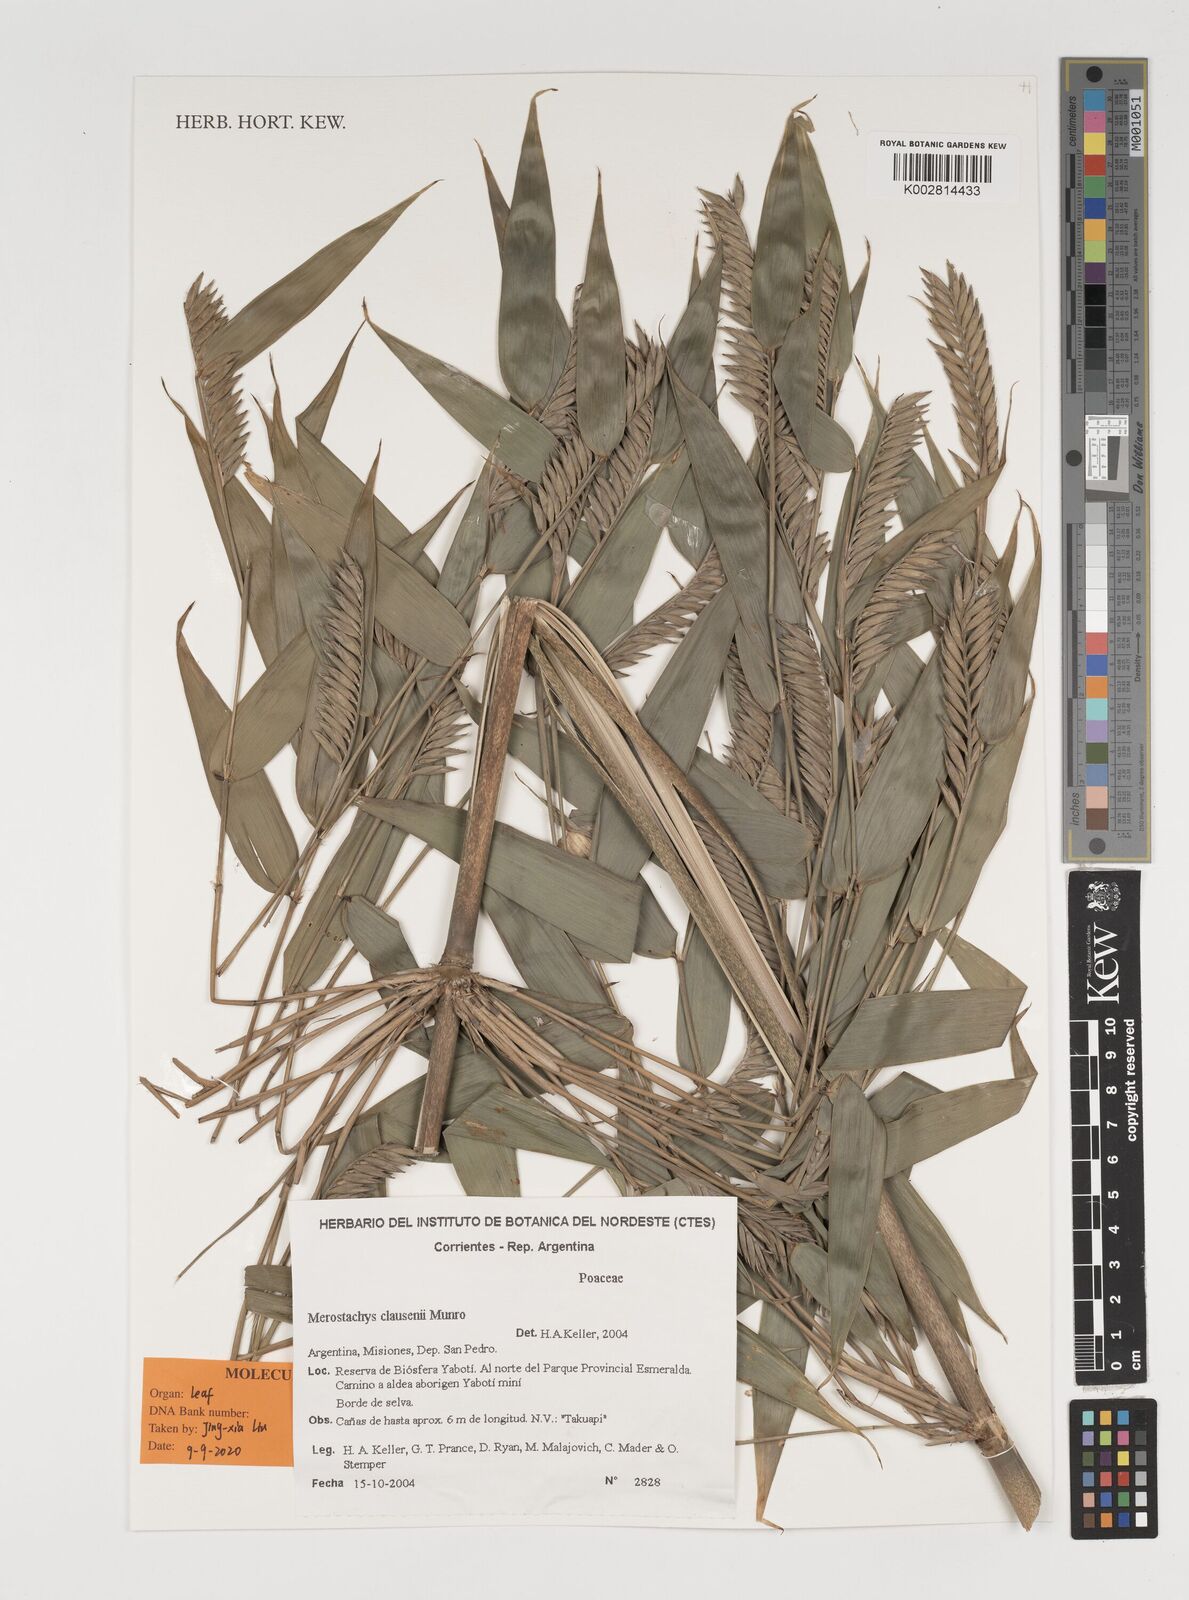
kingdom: Plantae
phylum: Tracheophyta
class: Liliopsida
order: Poales
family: Poaceae
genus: Merostachys
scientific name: Merostachys claussenii
